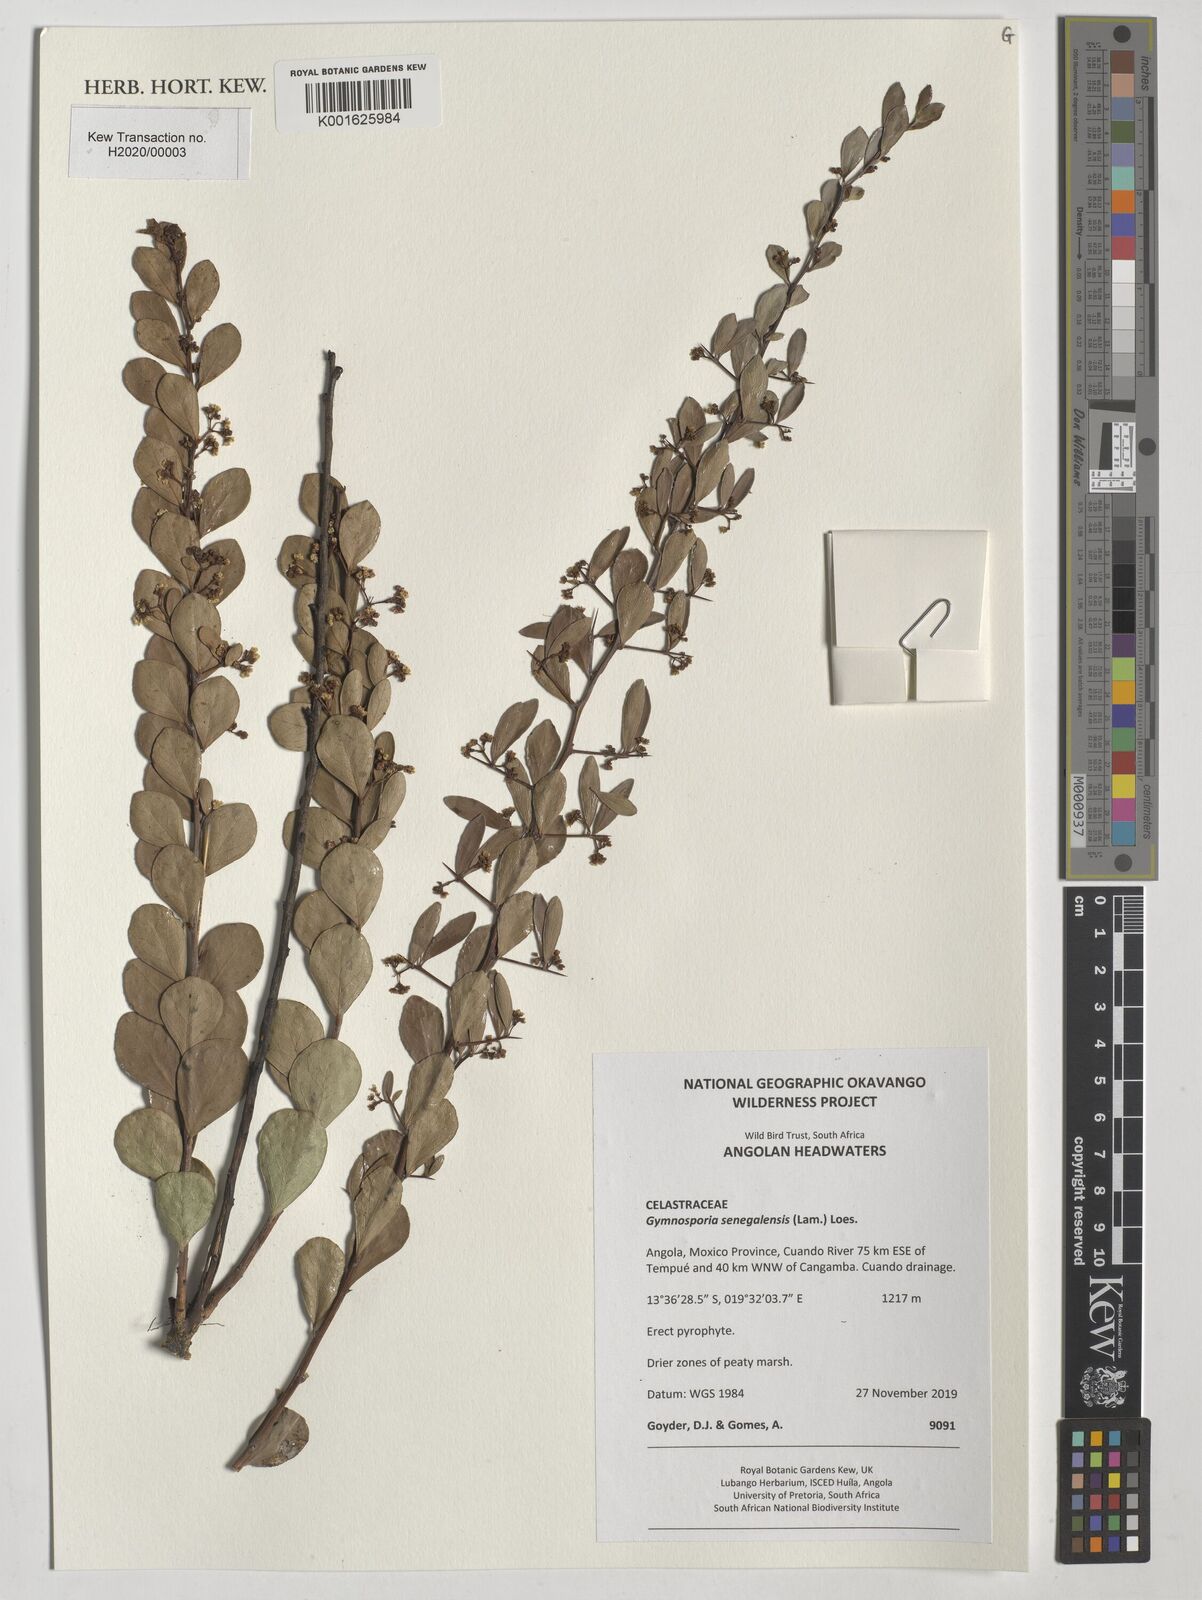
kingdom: Plantae
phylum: Tracheophyta
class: Magnoliopsida
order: Celastrales
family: Celastraceae
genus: Gymnosporia
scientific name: Gymnosporia senegalensis
